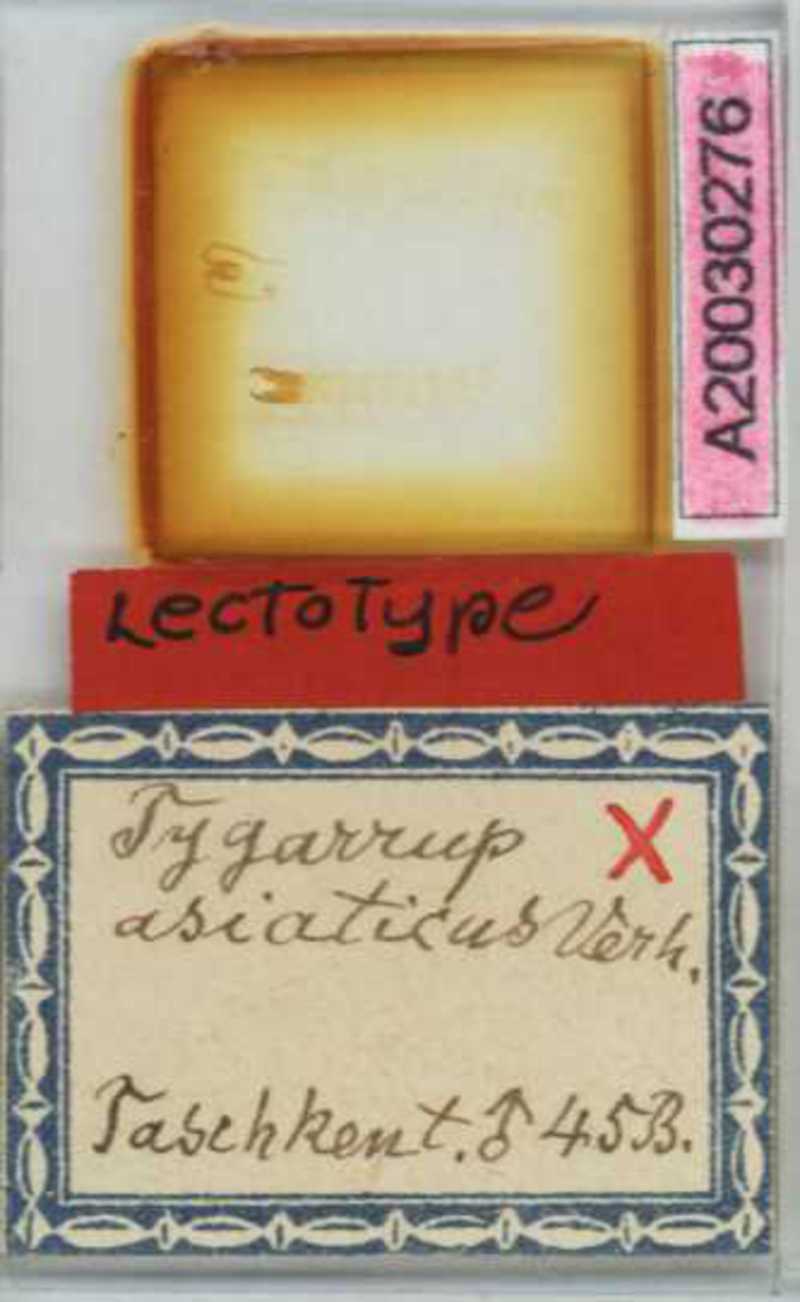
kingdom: Animalia
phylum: Arthropoda
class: Chilopoda
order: Geophilomorpha
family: Mecistocephalidae
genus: Krateraspis
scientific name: Krateraspis meinerti
